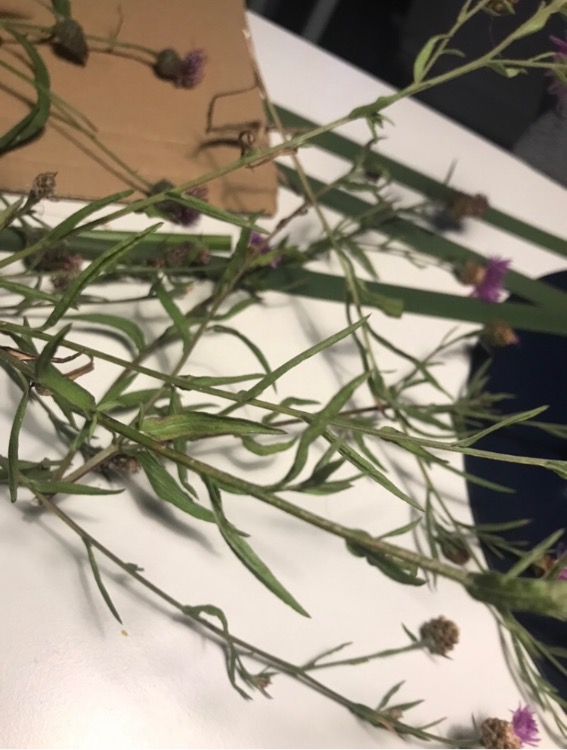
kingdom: Plantae
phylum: Tracheophyta
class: Magnoliopsida
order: Asterales
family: Asteraceae
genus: Centaurea
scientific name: Centaurea jacea
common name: Almindelig knopurt
